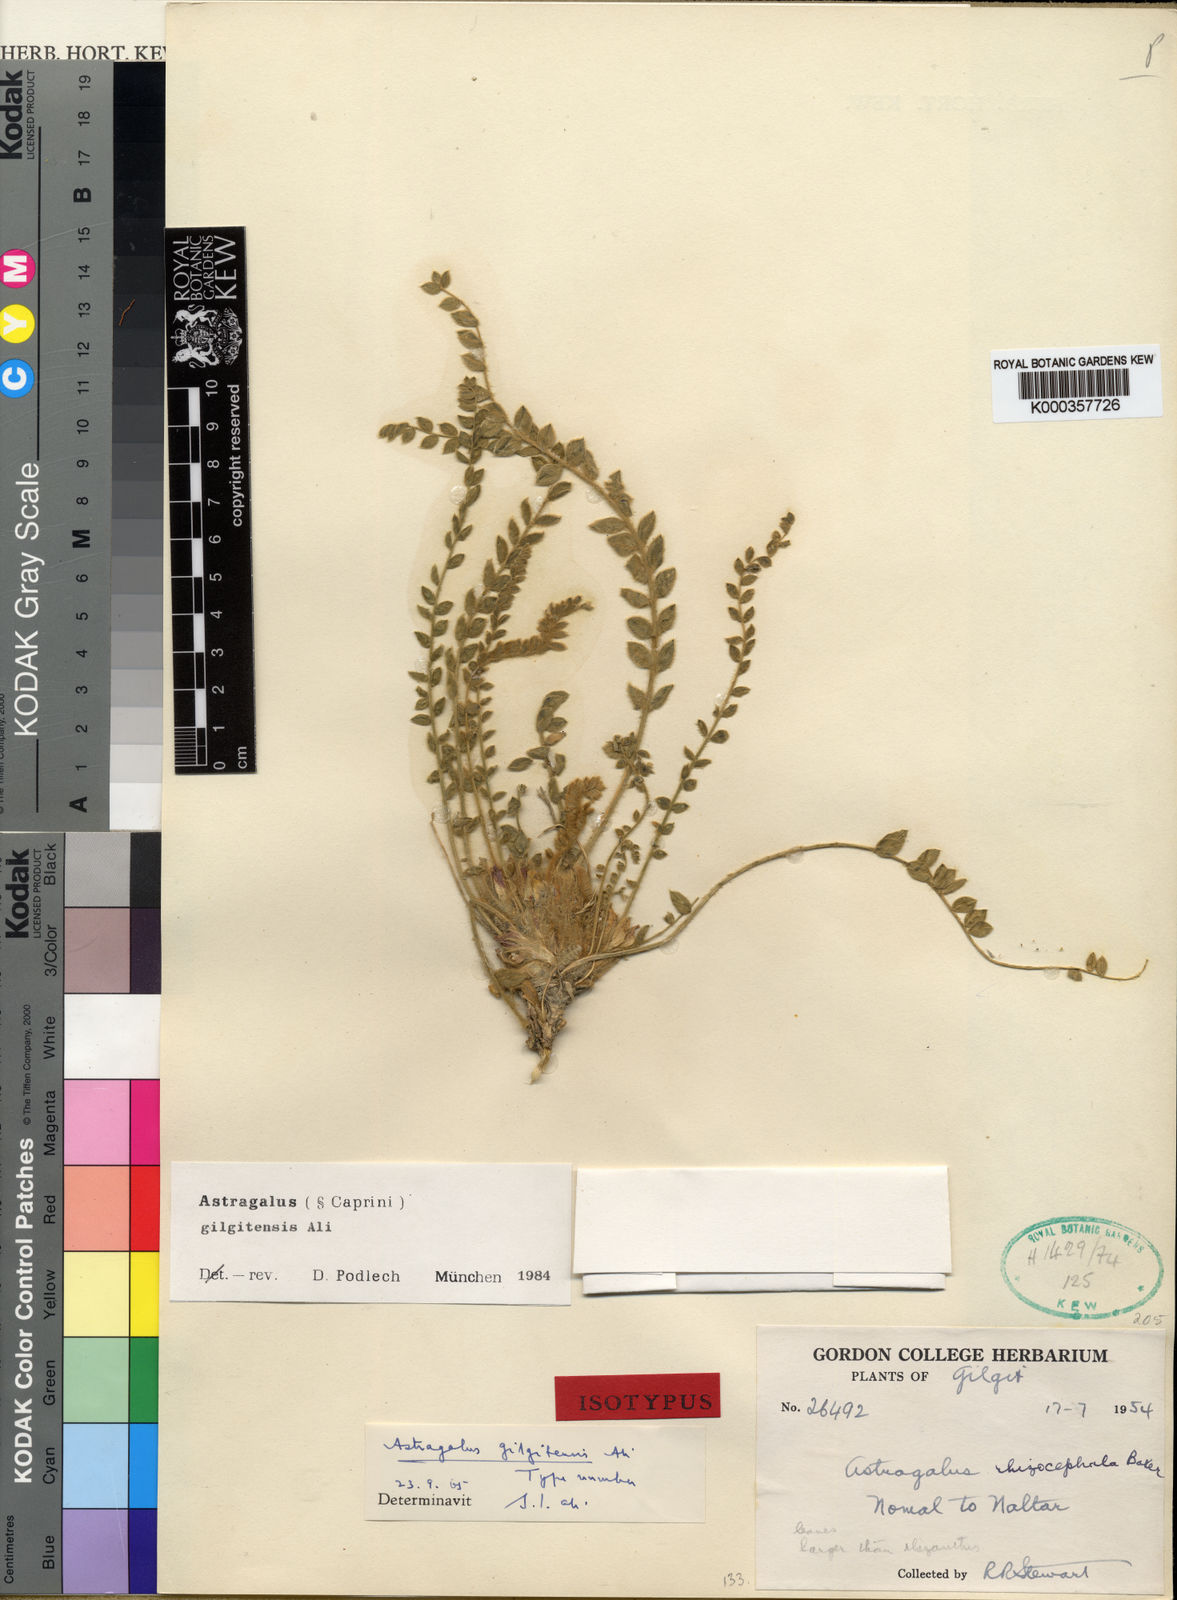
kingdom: Plantae
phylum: Tracheophyta
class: Magnoliopsida
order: Fabales
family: Fabaceae
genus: Astragalus
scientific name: Astragalus
